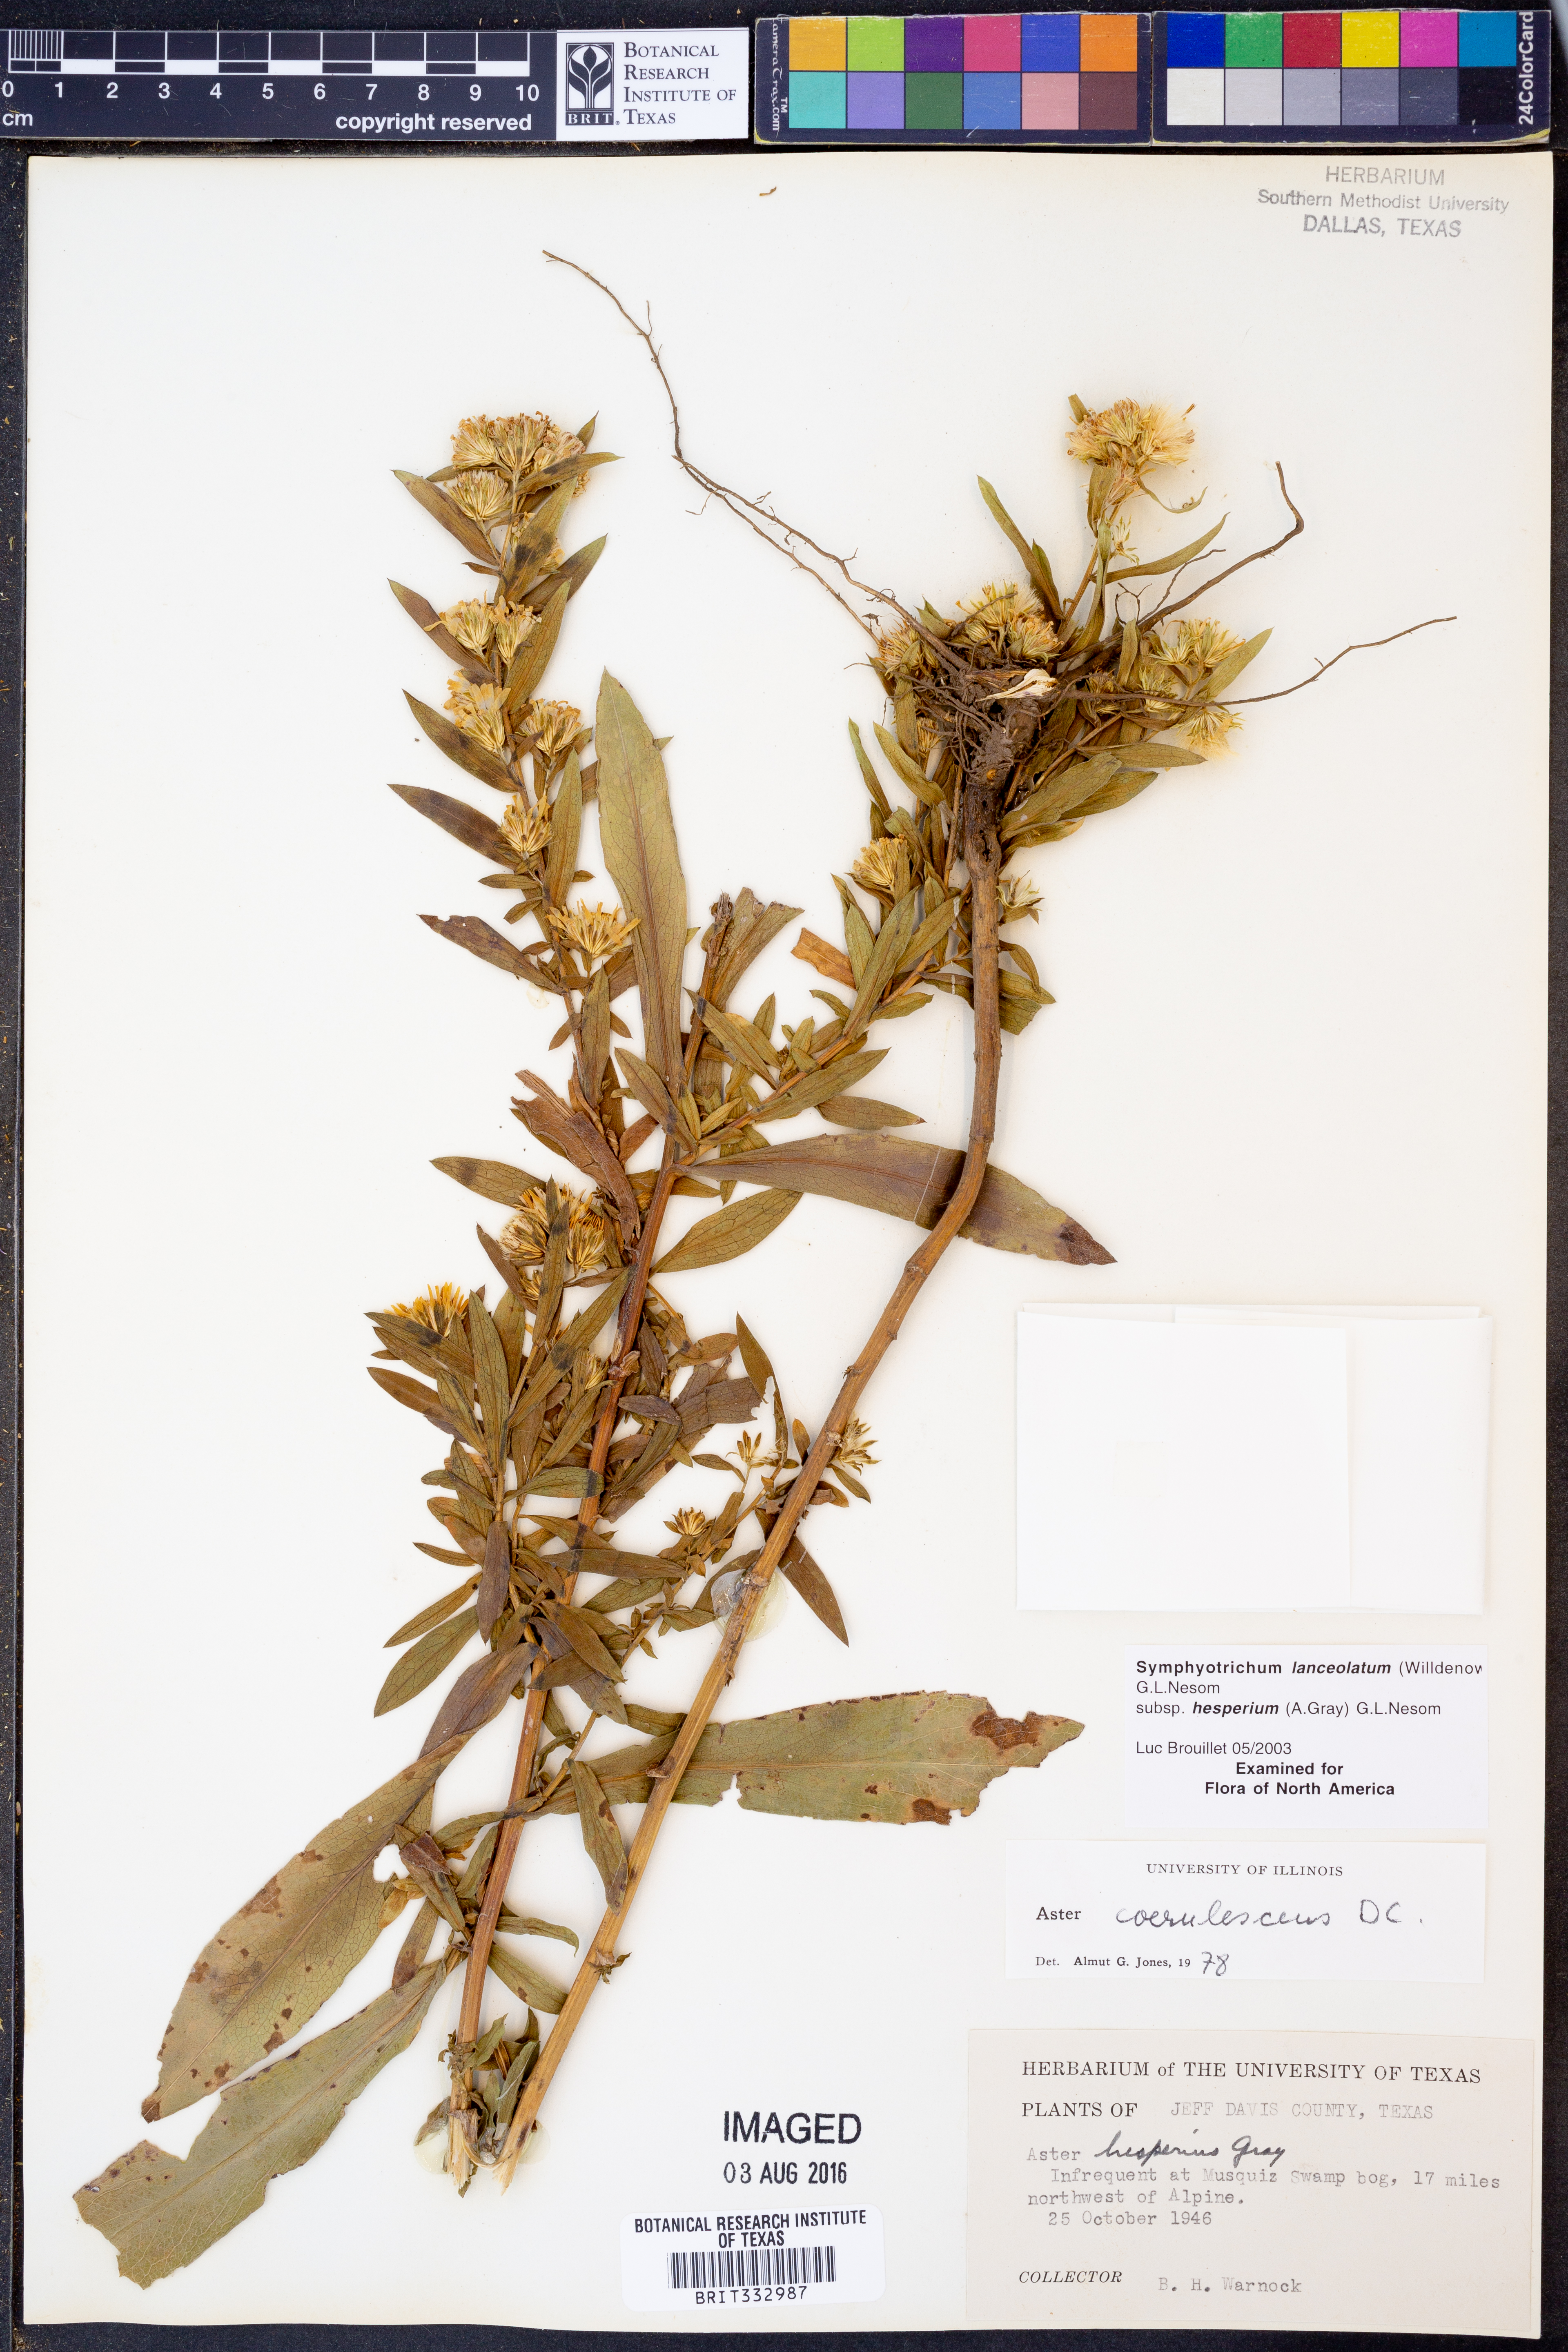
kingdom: Plantae
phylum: Tracheophyta
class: Magnoliopsida
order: Asterales
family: Asteraceae
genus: Symphyotrichum
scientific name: Symphyotrichum lanceolatum
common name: Panicled aster
